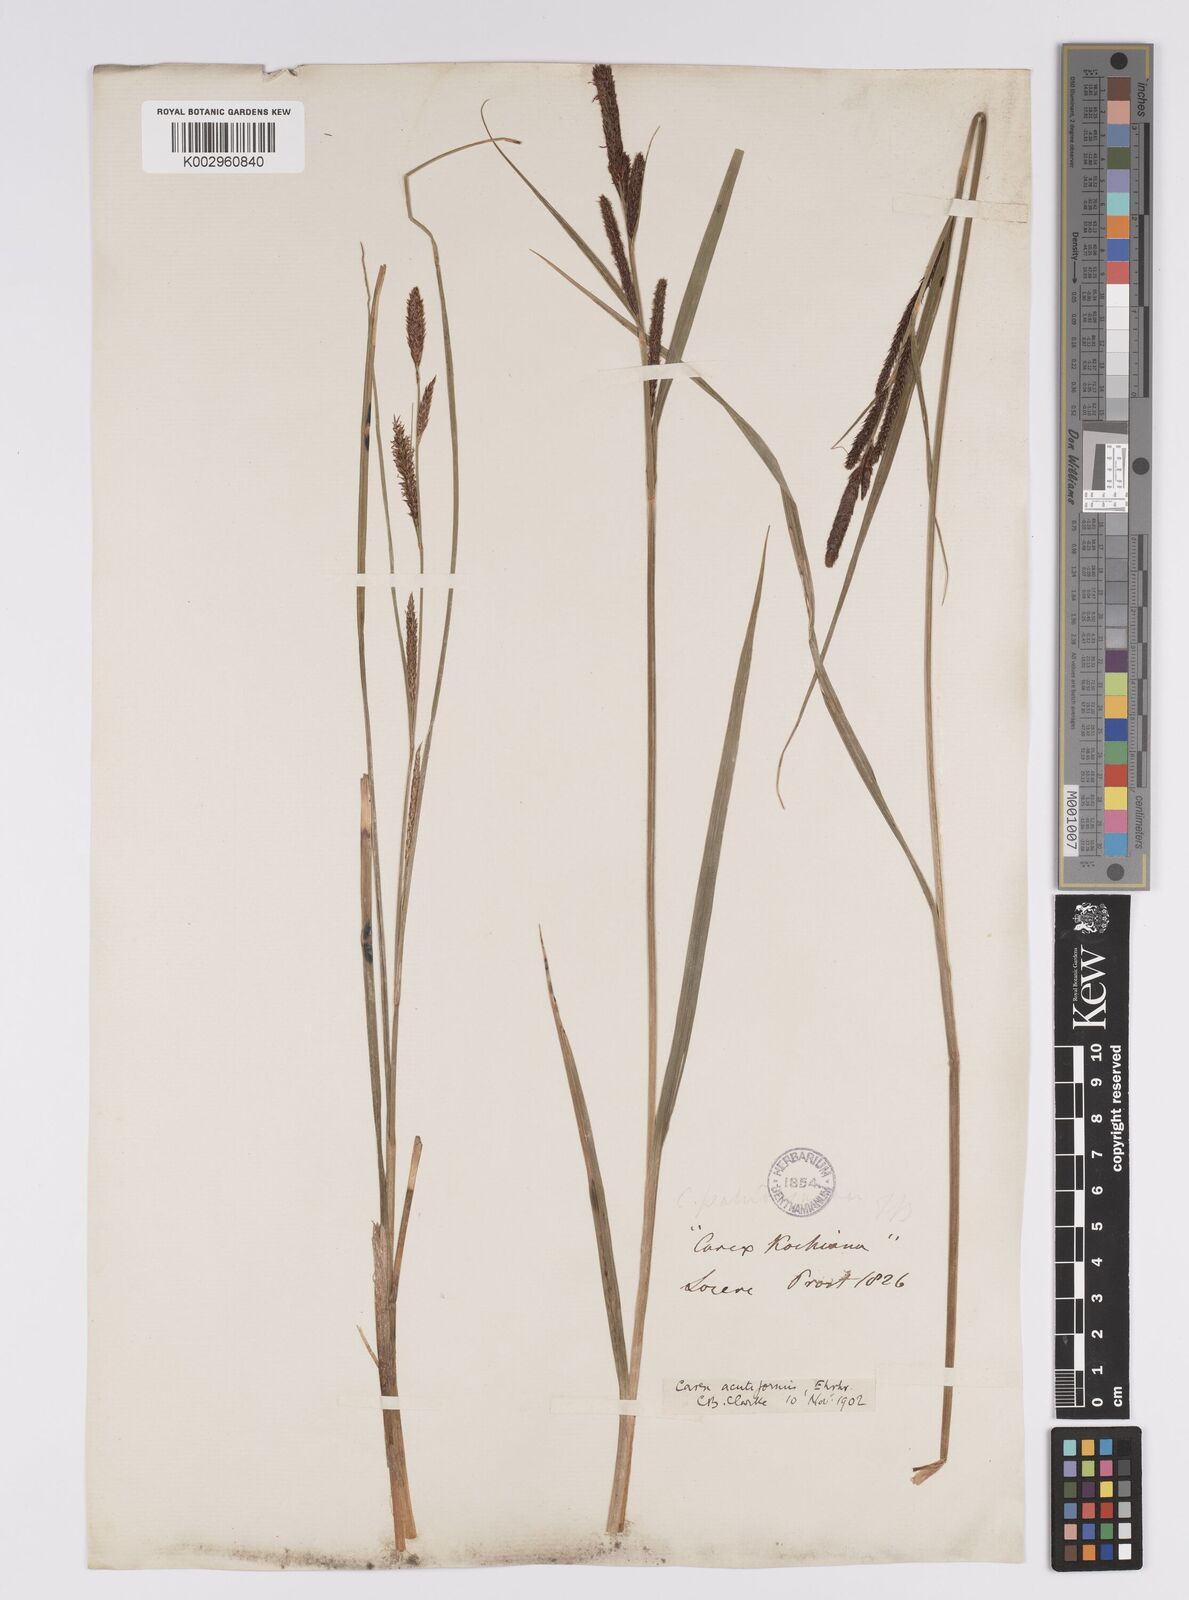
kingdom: Plantae
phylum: Tracheophyta
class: Liliopsida
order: Poales
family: Cyperaceae
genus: Carex
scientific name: Carex acutiformis
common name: Lesser pond-sedge
